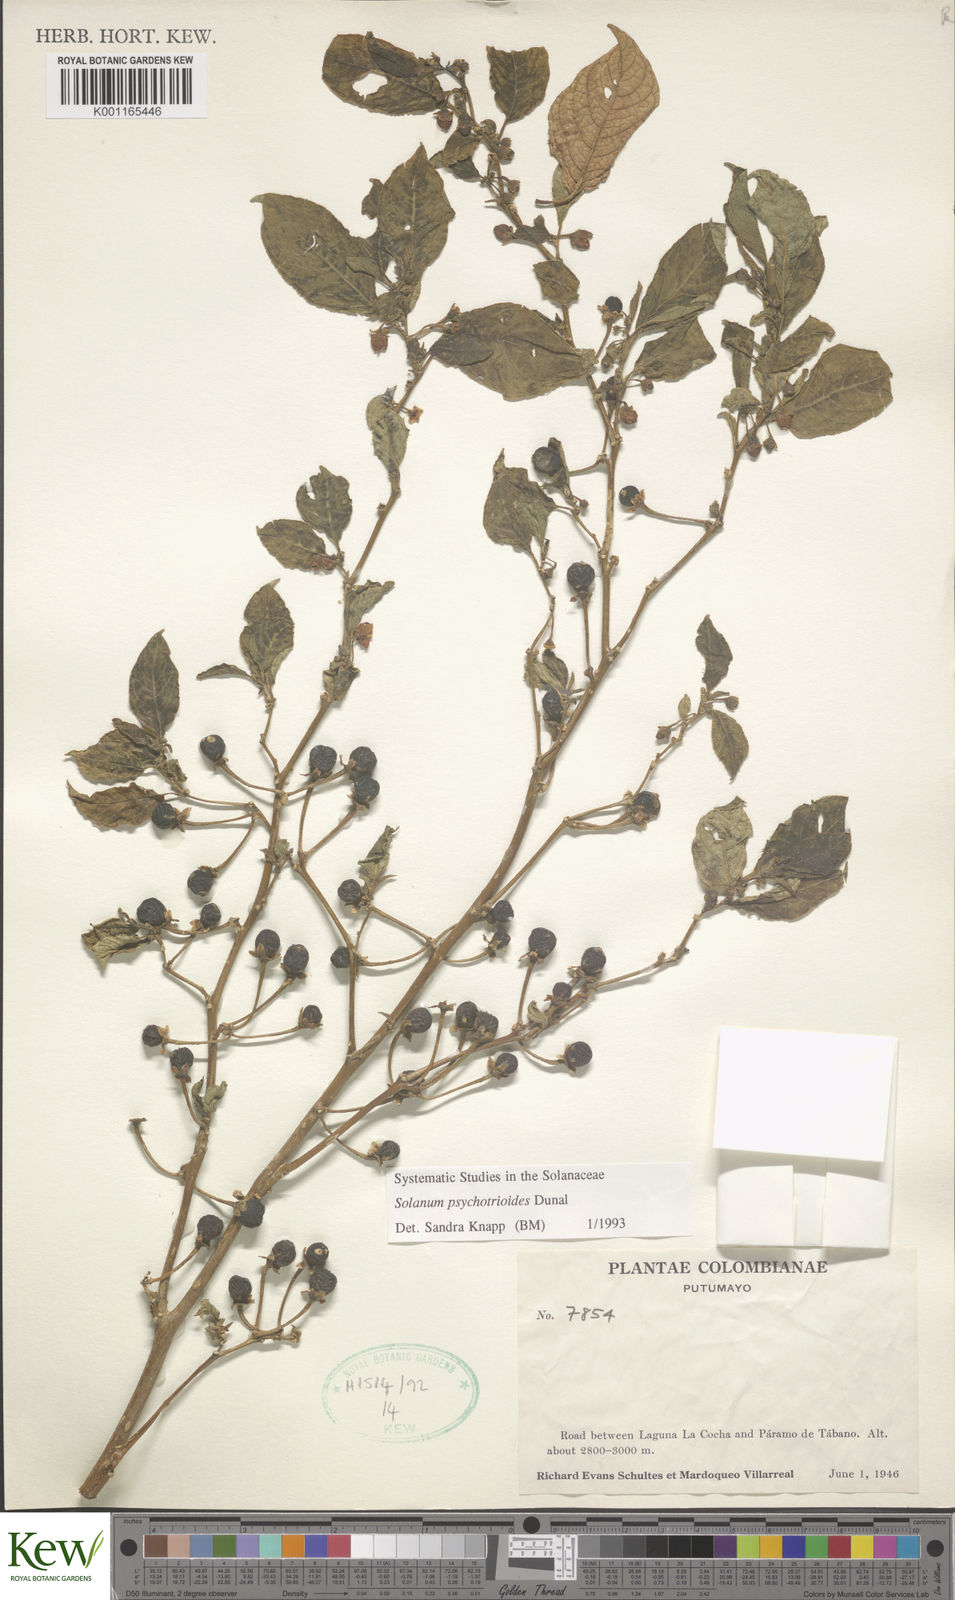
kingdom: Plantae
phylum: Tracheophyta
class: Magnoliopsida
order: Solanales
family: Solanaceae
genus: Solanum
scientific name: Solanum psychotrioides
